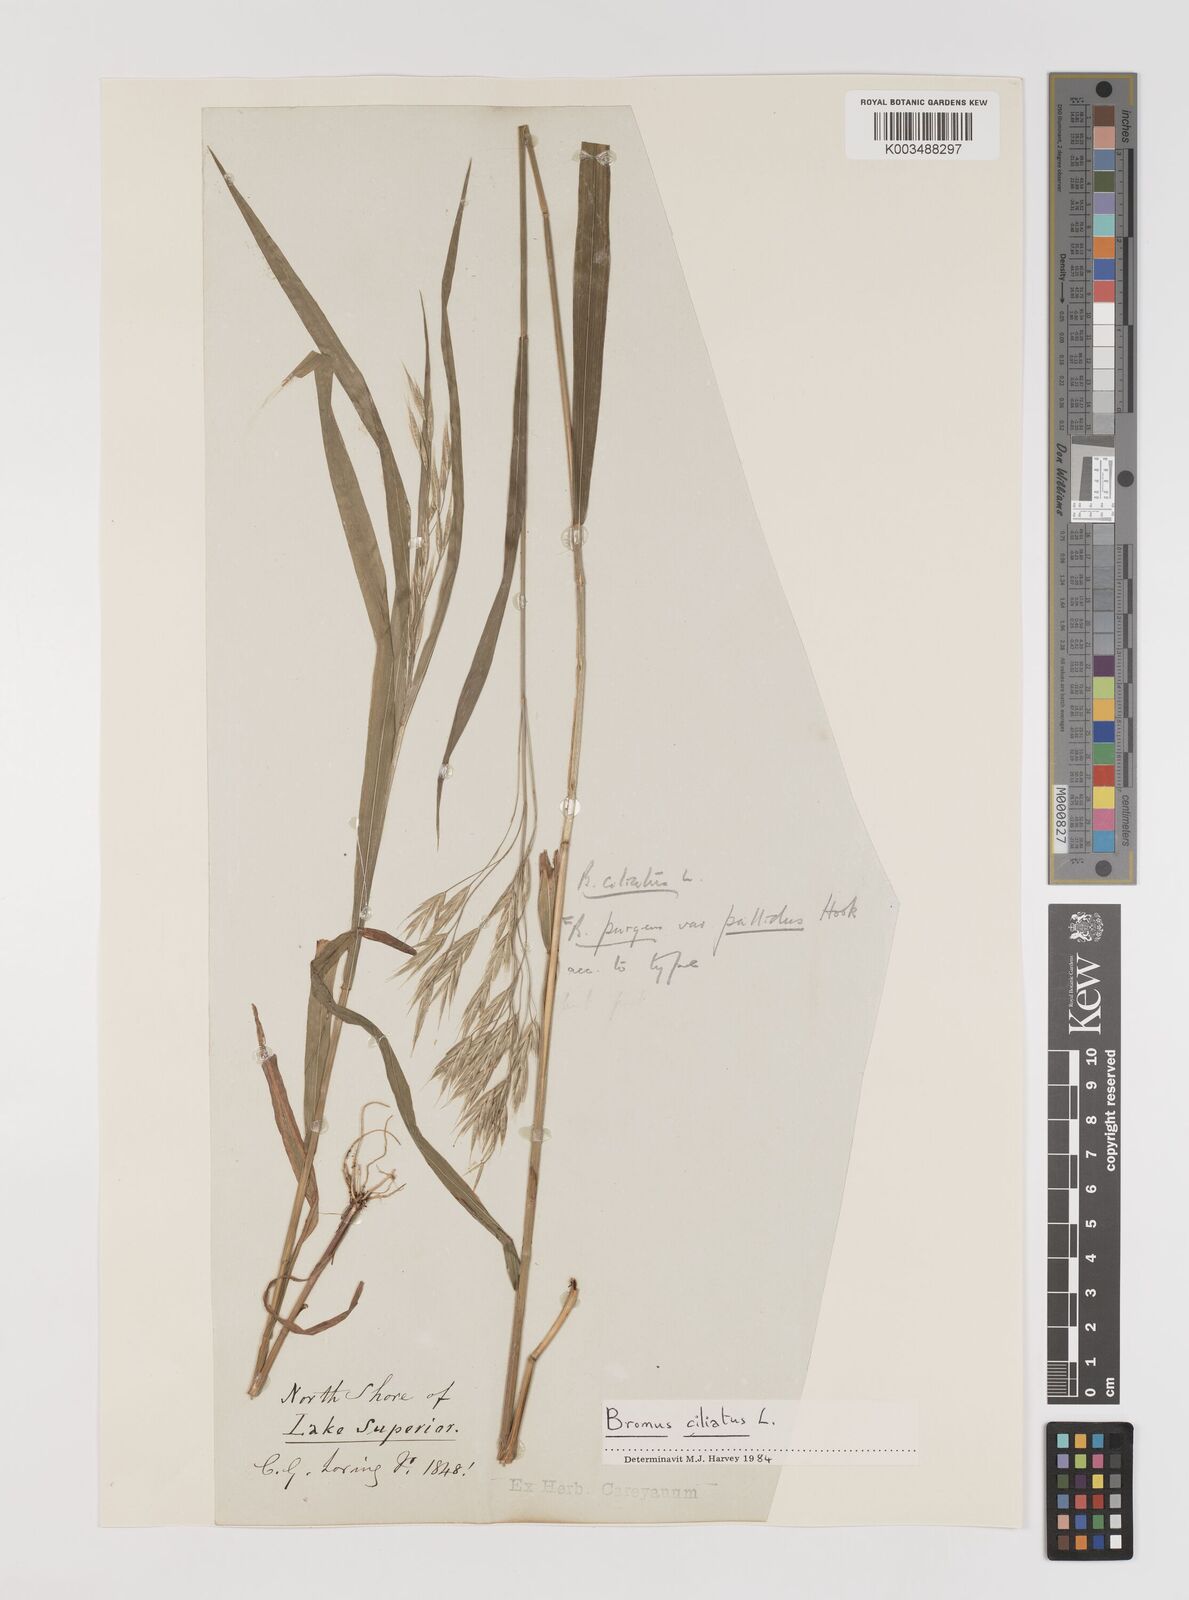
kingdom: Plantae
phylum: Tracheophyta
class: Liliopsida
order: Poales
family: Poaceae
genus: Bromus
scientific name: Bromus pubescens
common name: Hairy wood brome grass
